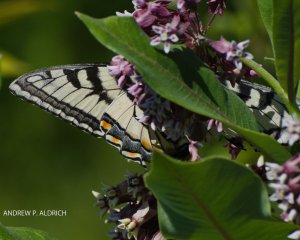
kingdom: Animalia
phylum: Arthropoda
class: Insecta
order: Lepidoptera
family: Papilionidae
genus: Pterourus
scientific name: Pterourus canadensis
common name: Canadian Tiger Swallowtail
